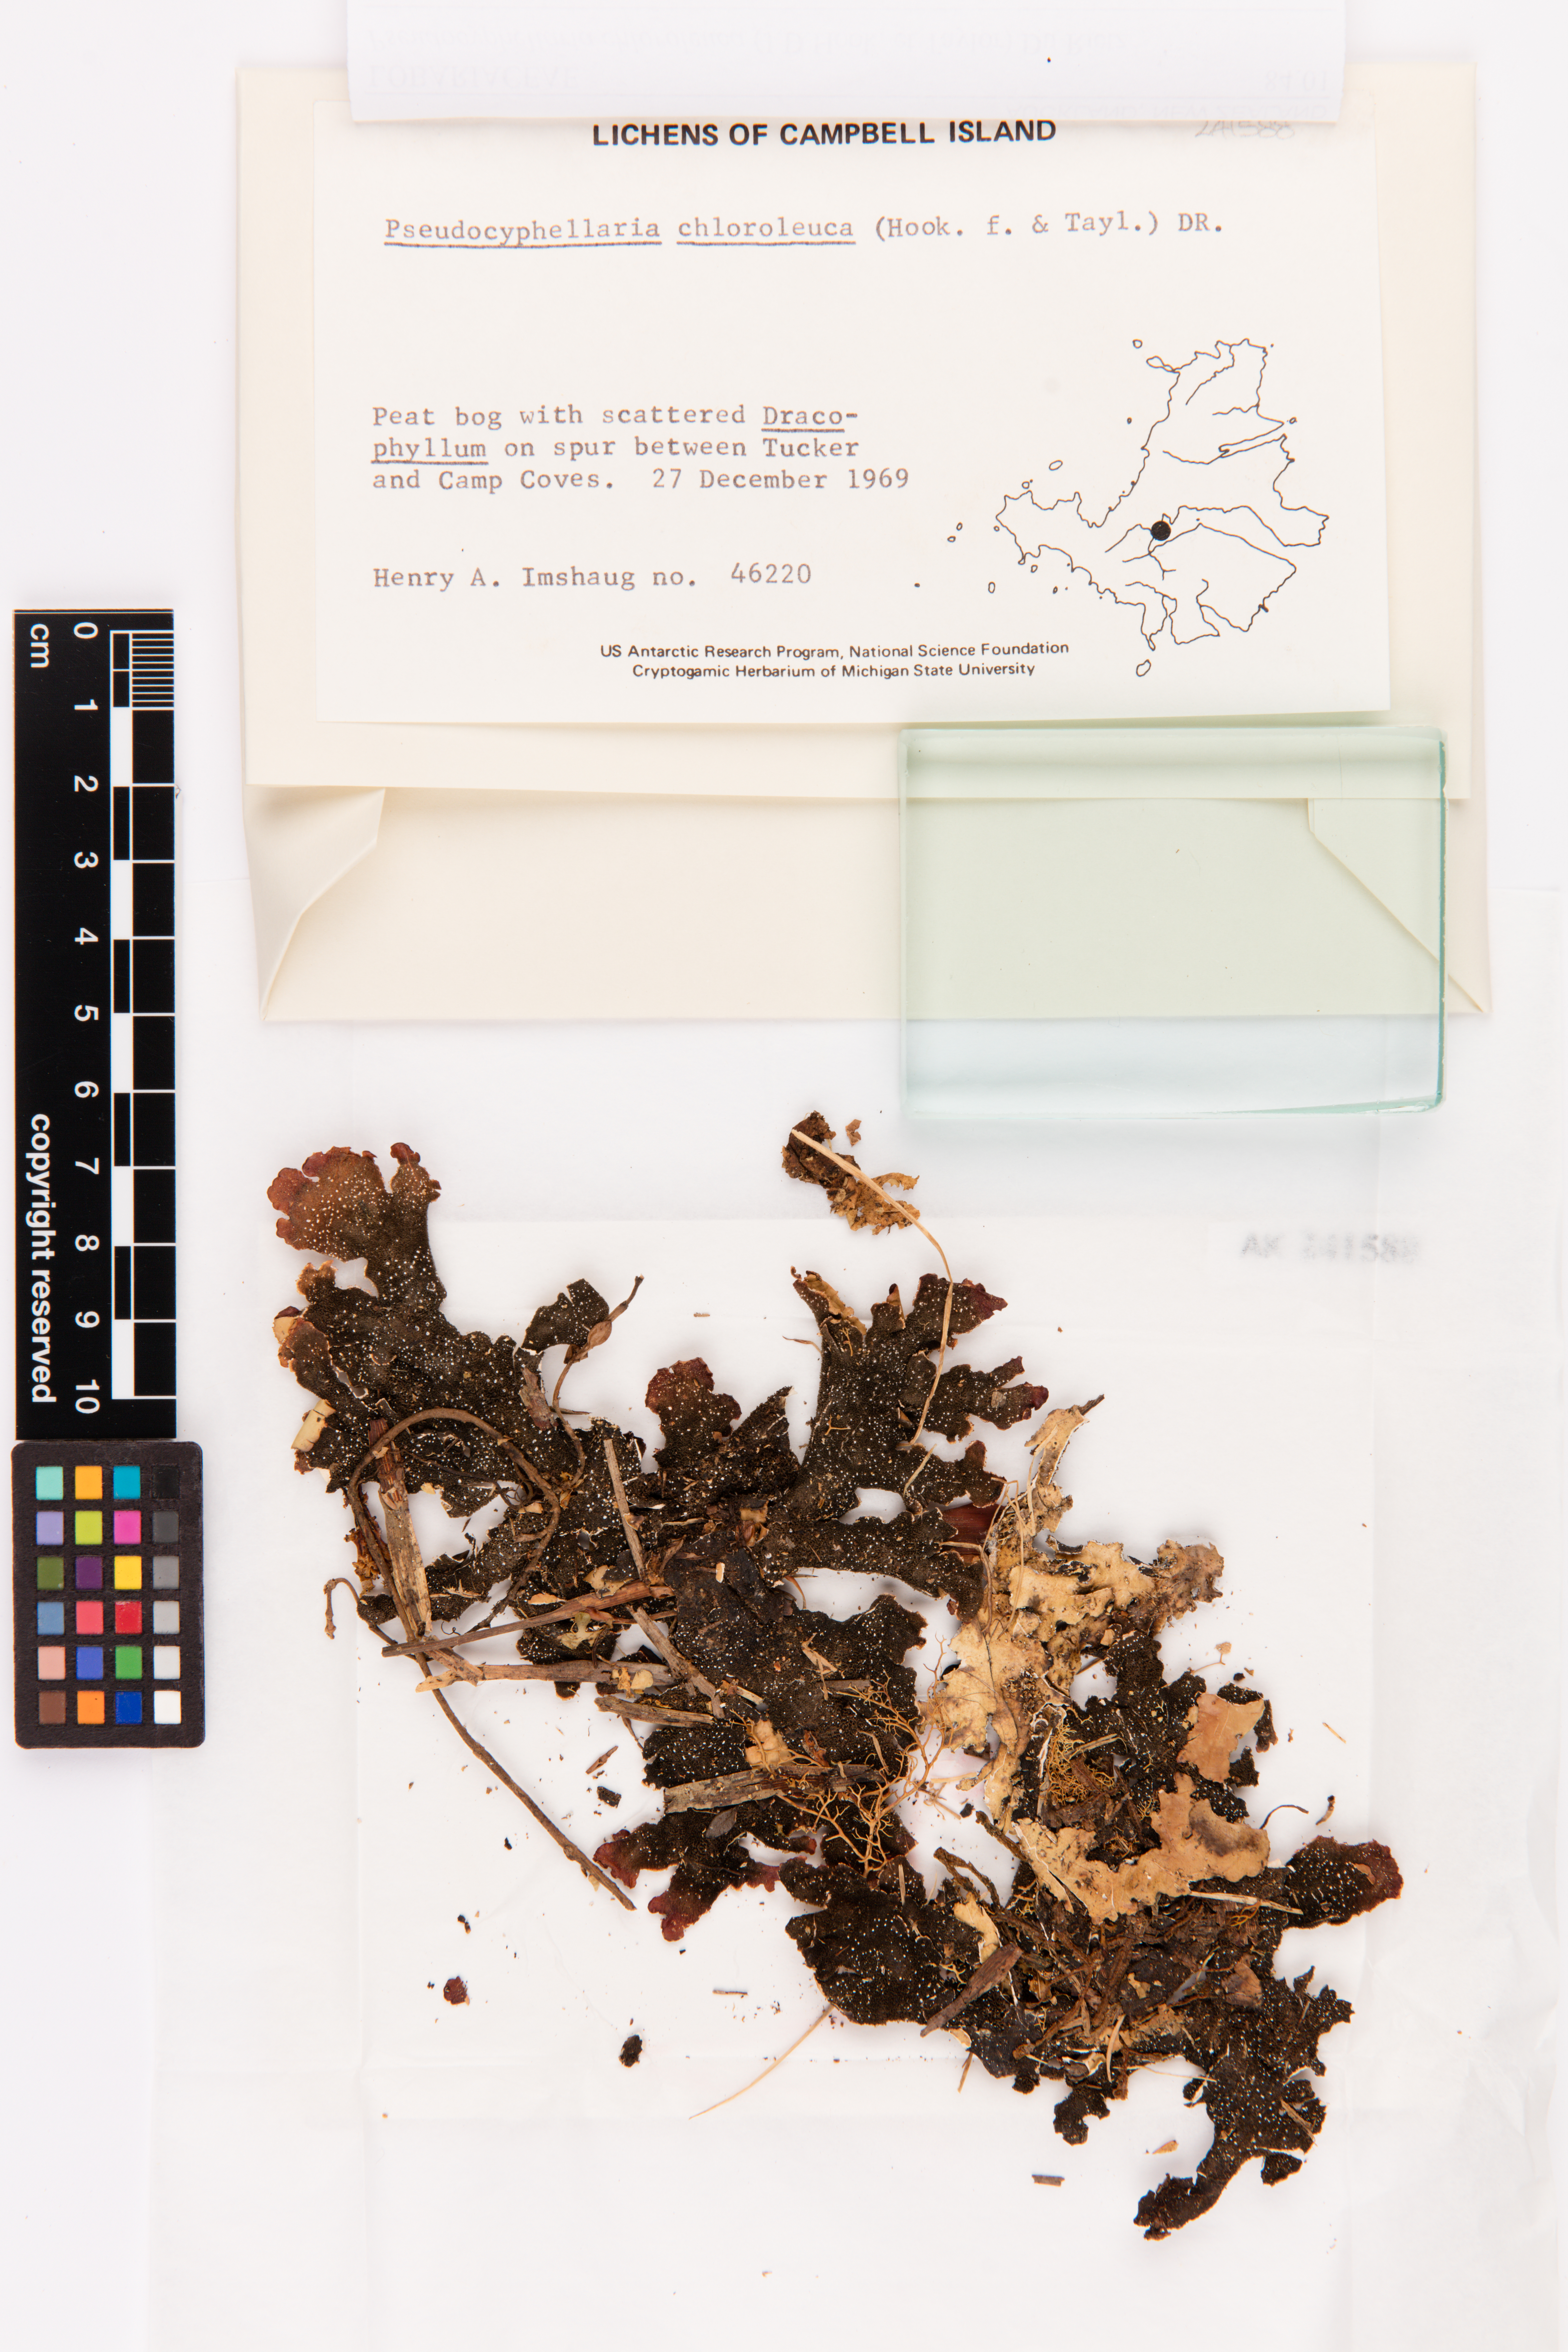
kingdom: Fungi
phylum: Ascomycota
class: Lecanoromycetes
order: Peltigerales
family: Lobariaceae
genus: Pseudocyphellaria
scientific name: Pseudocyphellaria chloroleuca
